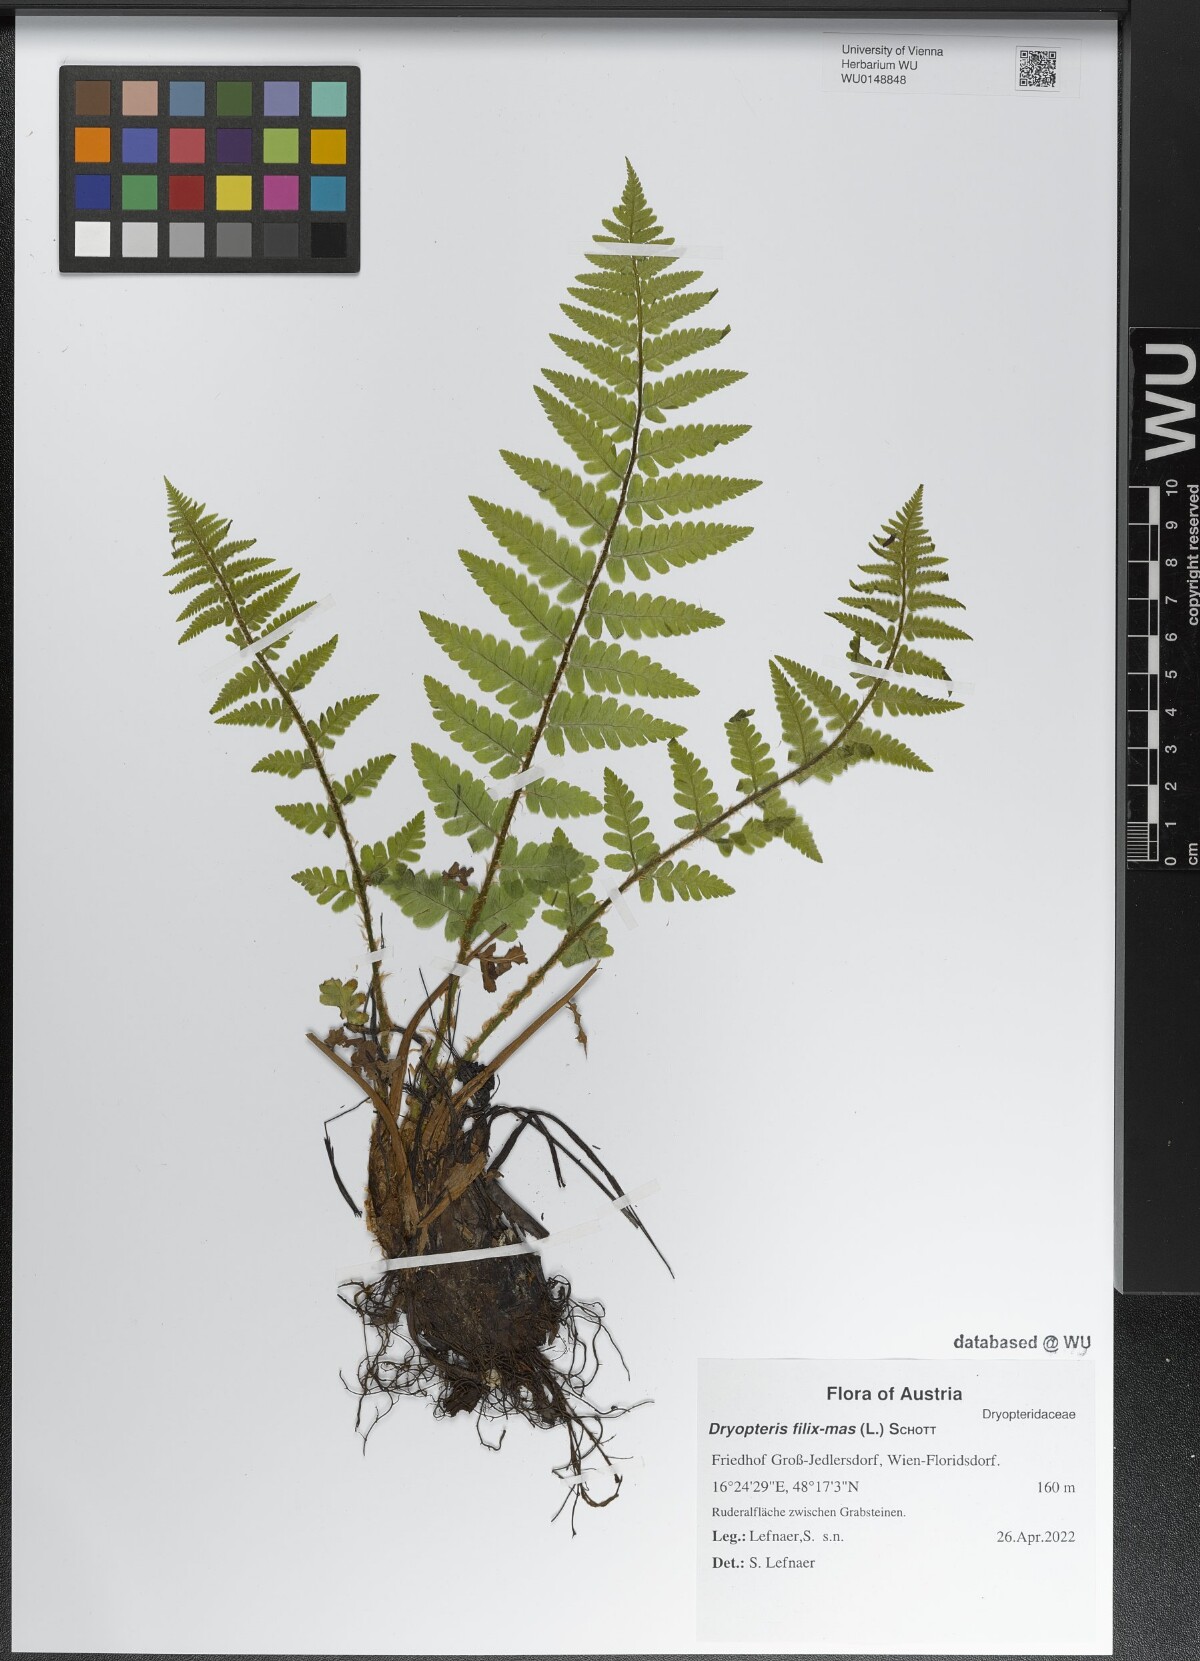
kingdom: Plantae
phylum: Tracheophyta
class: Polypodiopsida
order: Polypodiales
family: Dryopteridaceae
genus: Dryopteris
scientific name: Dryopteris filix-mas
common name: Male fern
